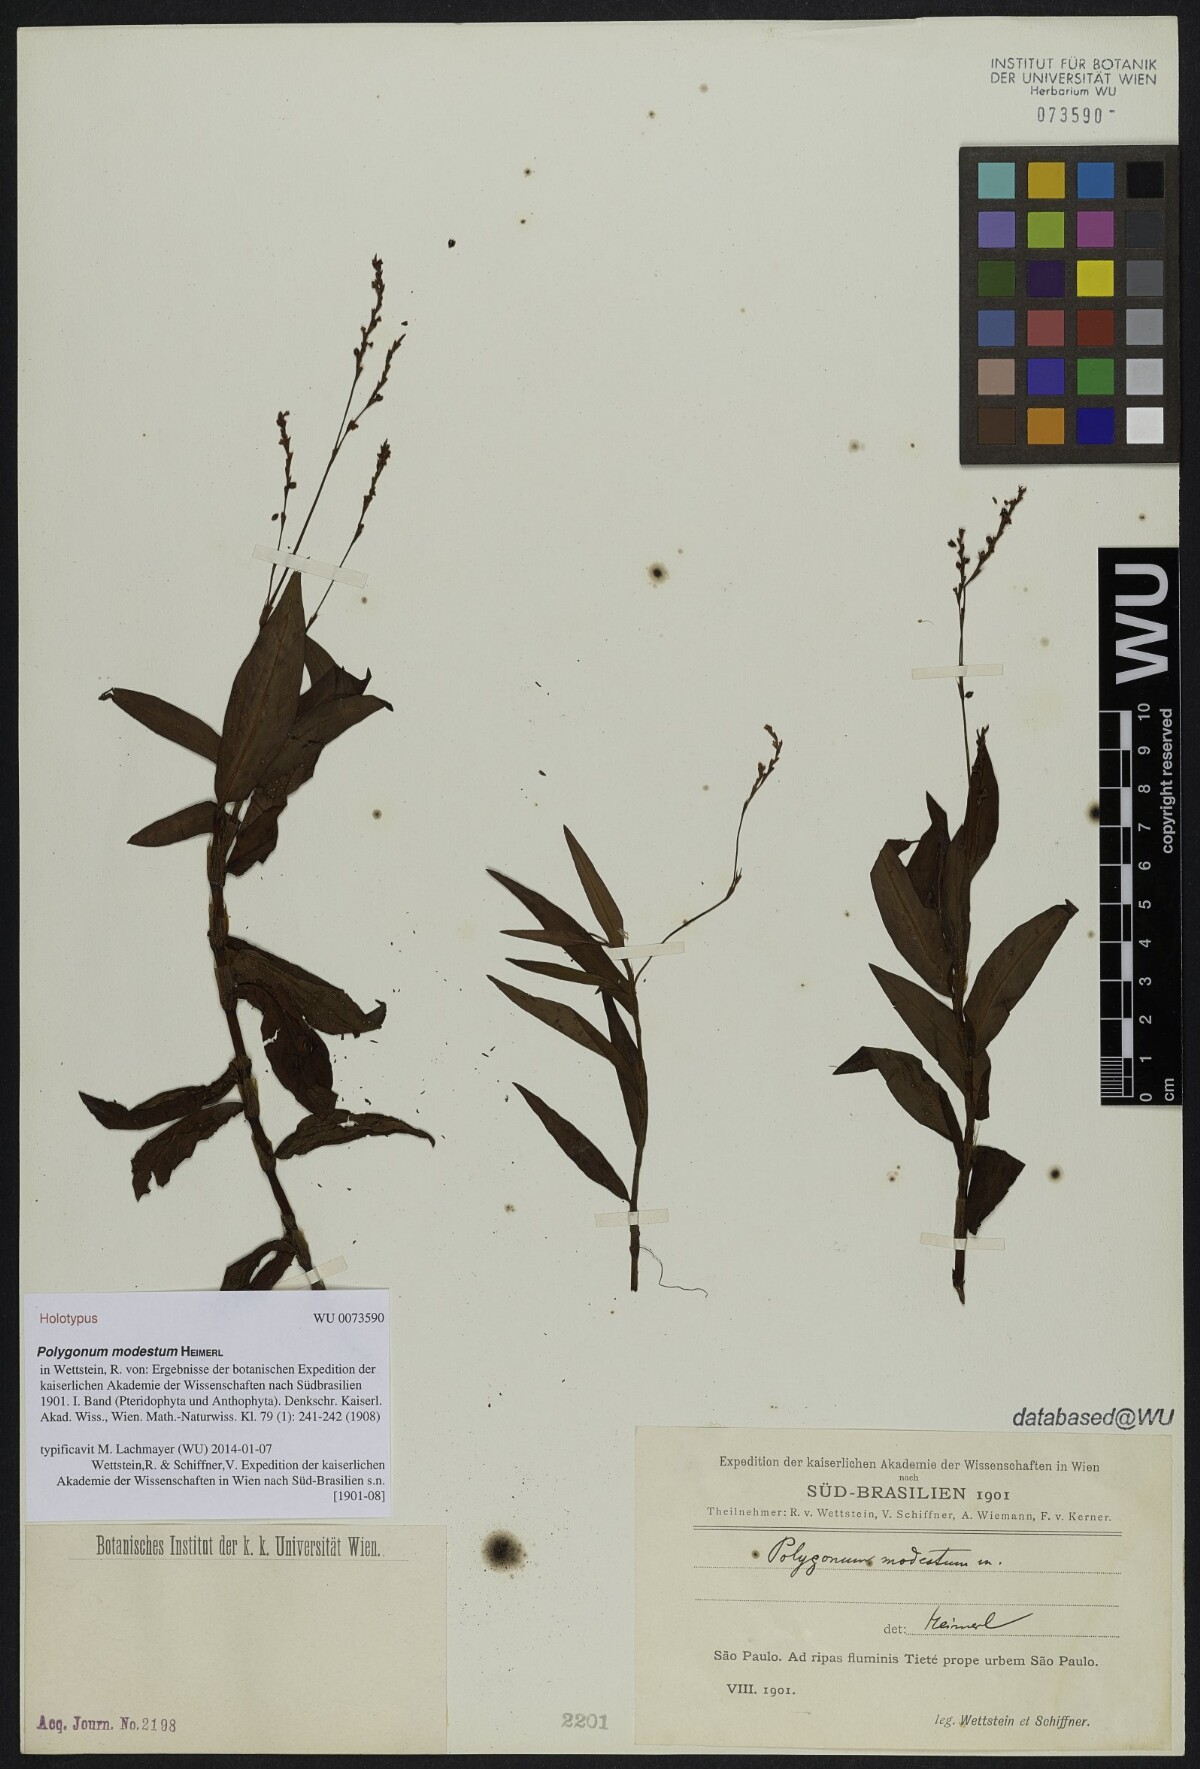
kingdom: Plantae
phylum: Tracheophyta
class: Magnoliopsida
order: Caryophyllales
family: Polygonaceae
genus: Polygonum
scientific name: Polygonum modestum
